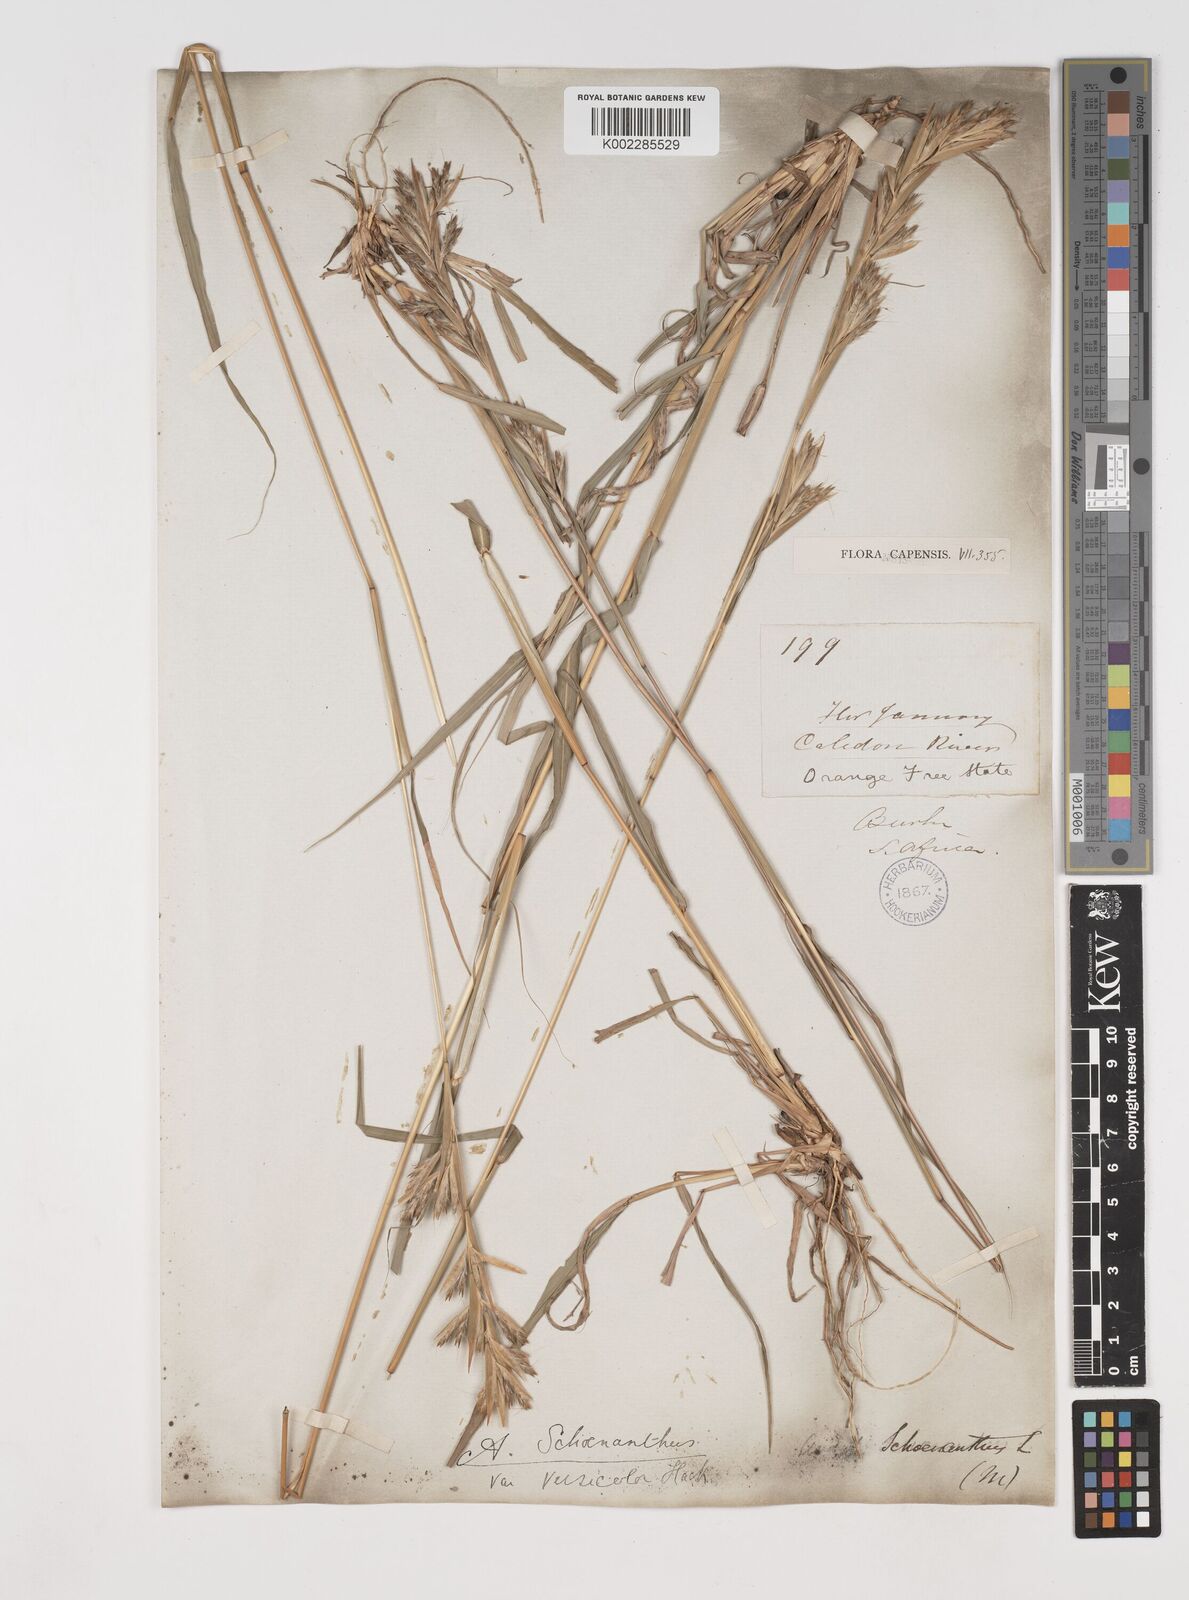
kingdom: Plantae
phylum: Tracheophyta
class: Liliopsida
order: Poales
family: Poaceae
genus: Cymbopogon
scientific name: Cymbopogon caesius
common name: Kachi grass
